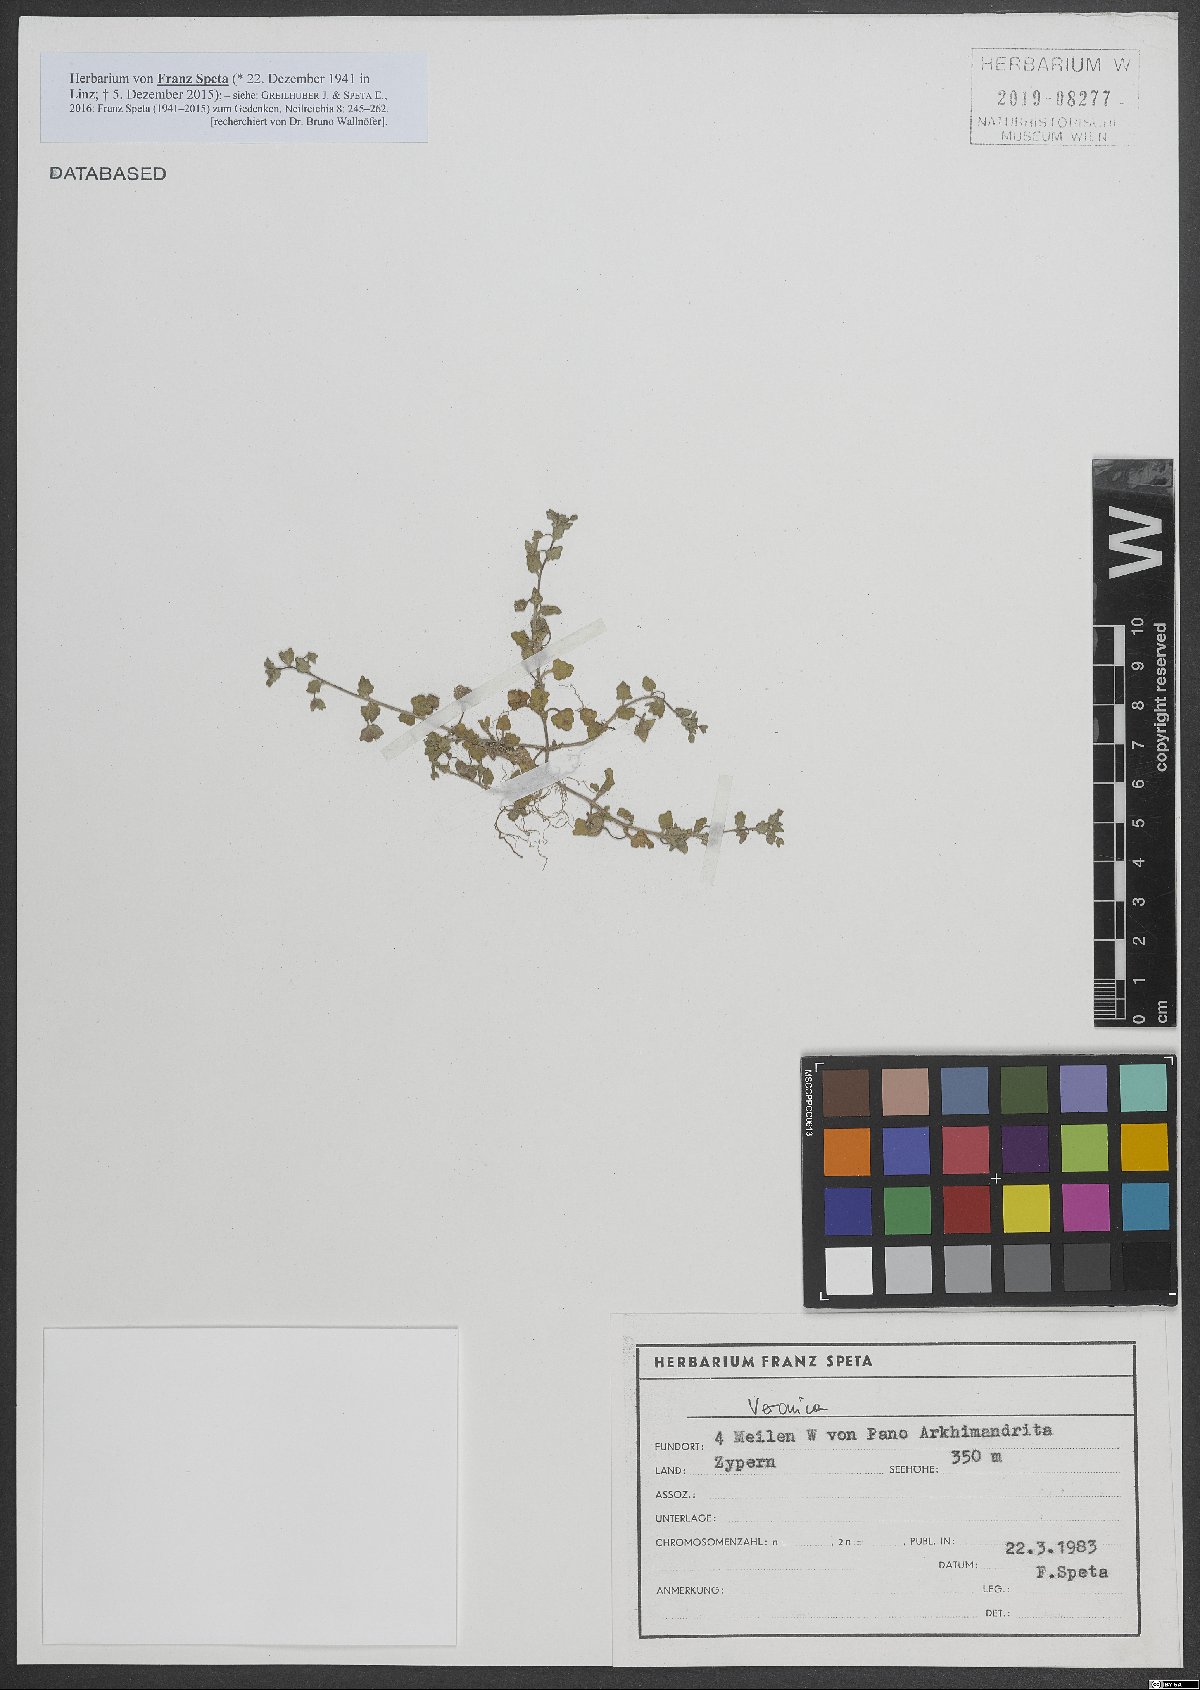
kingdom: Plantae
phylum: Tracheophyta
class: Magnoliopsida
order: Lamiales
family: Plantaginaceae
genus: Veronica
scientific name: Veronica
